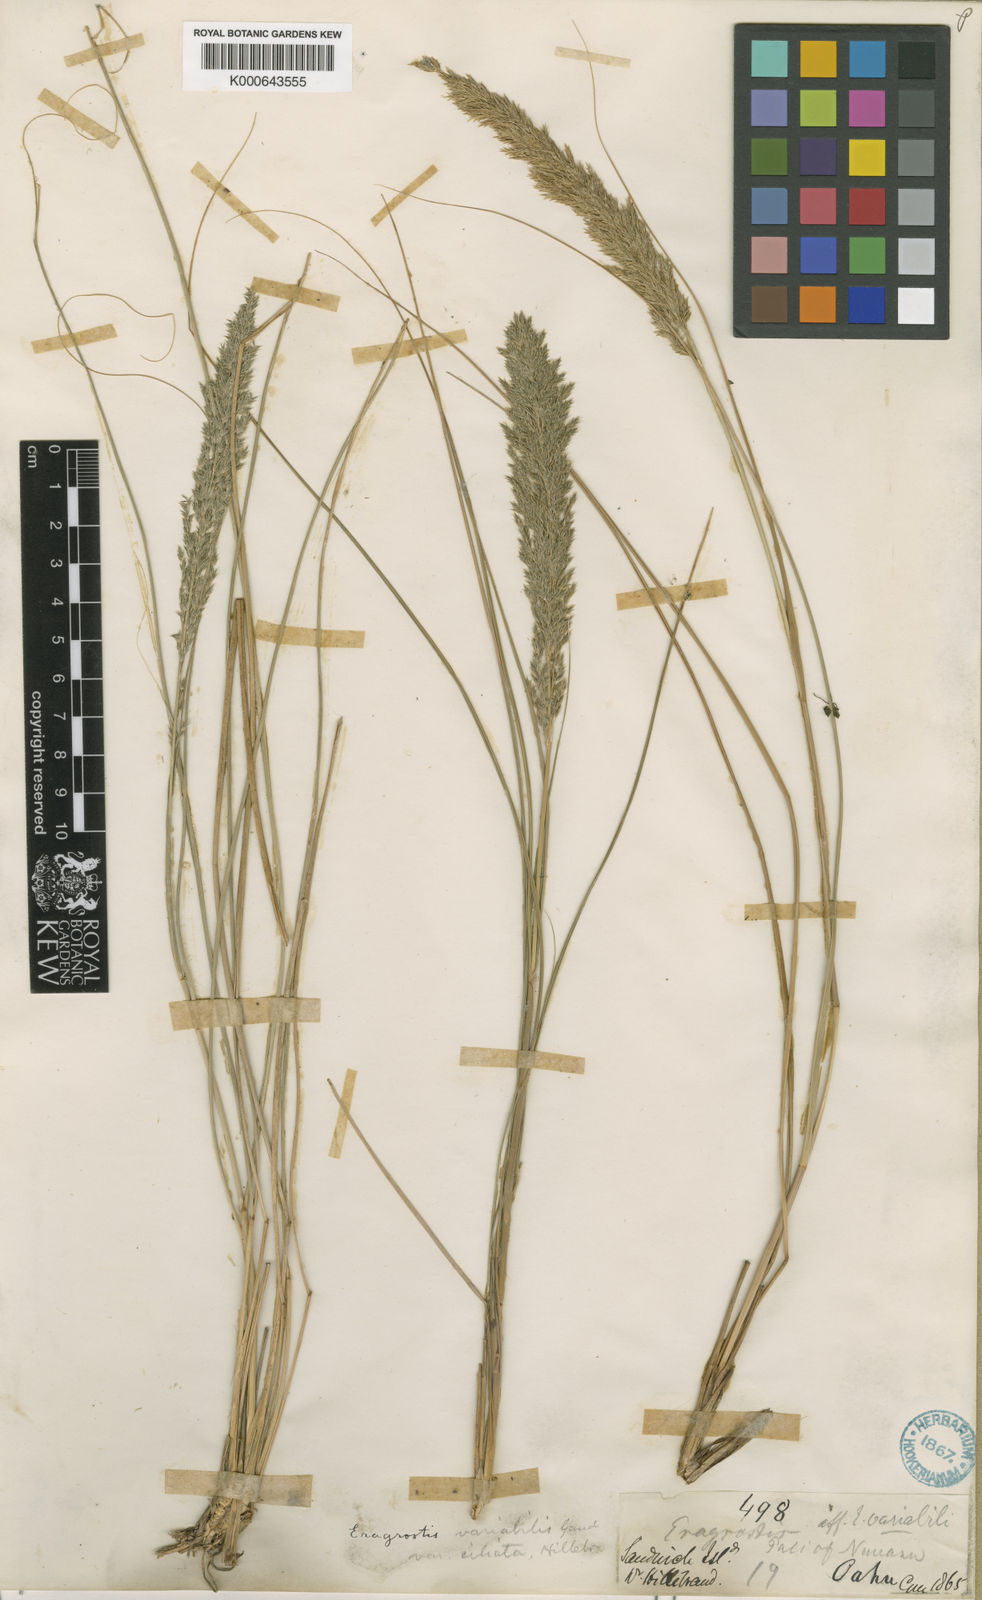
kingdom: Plantae
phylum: Tracheophyta
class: Liliopsida
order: Poales
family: Poaceae
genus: Eragrostis
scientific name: Eragrostis
